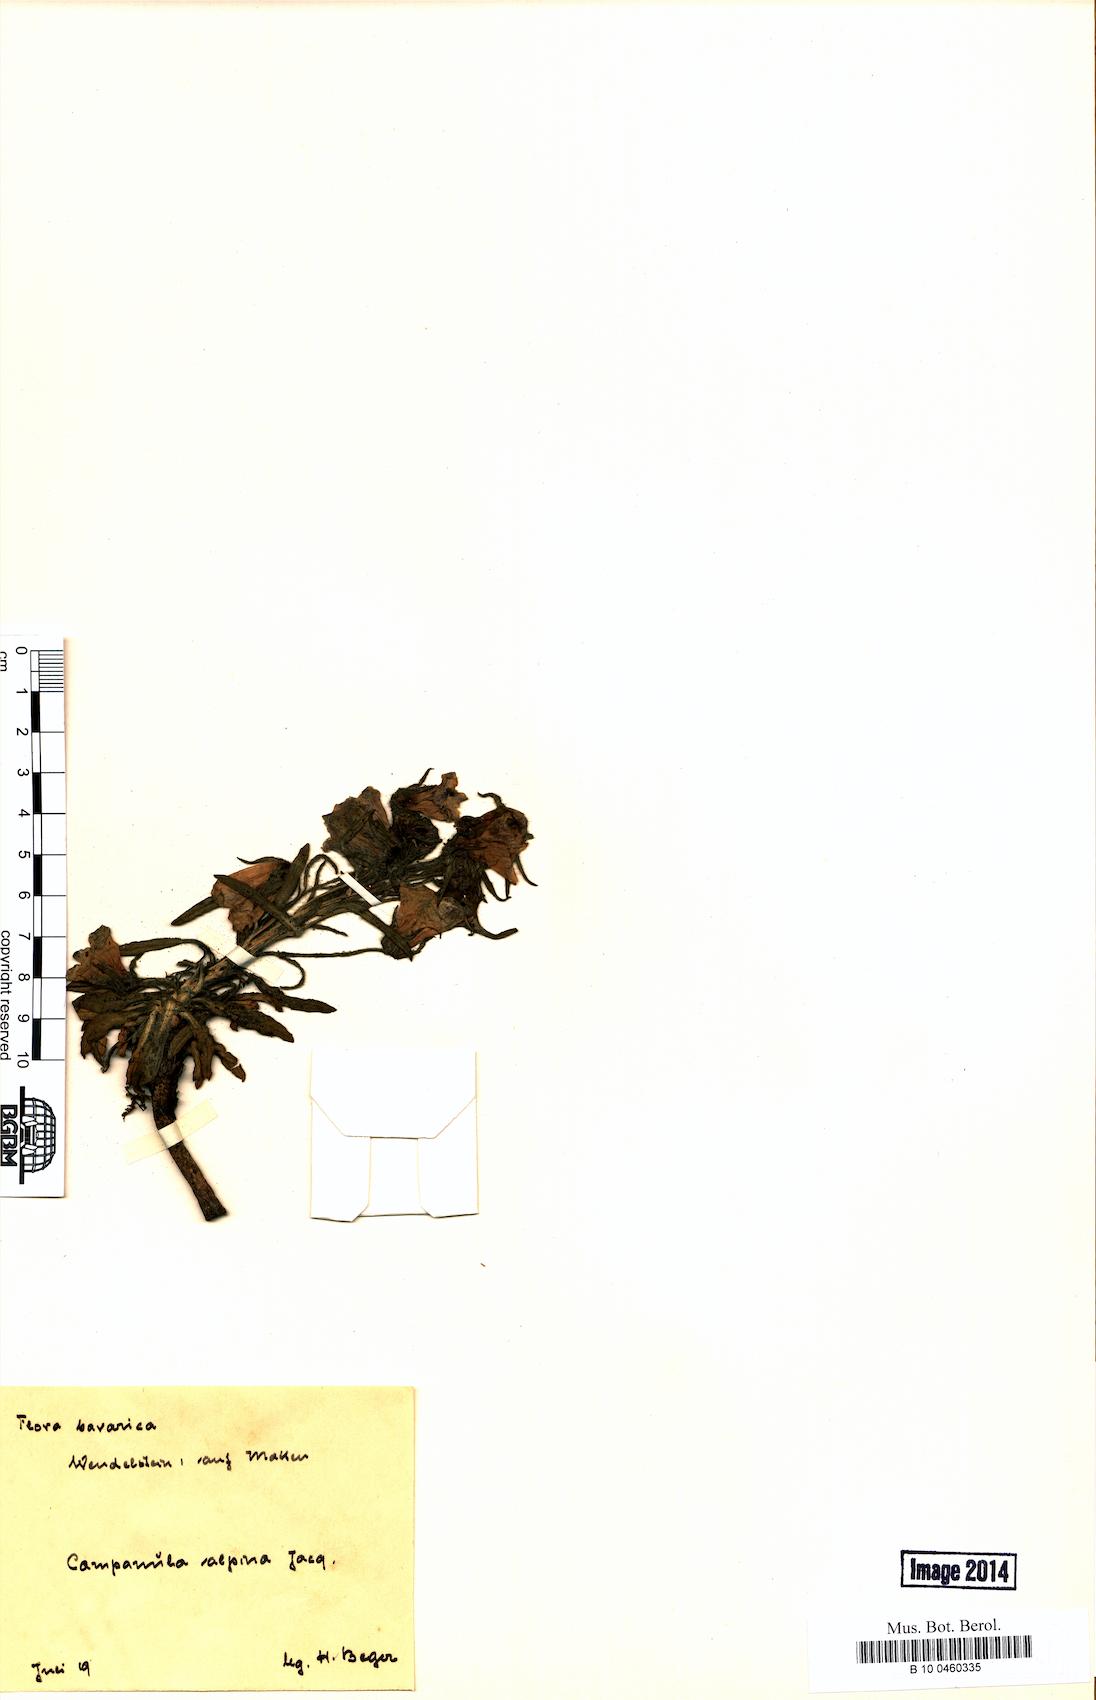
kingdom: Plantae
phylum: Tracheophyta
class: Magnoliopsida
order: Asterales
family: Campanulaceae
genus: Campanula
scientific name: Campanula alpina
